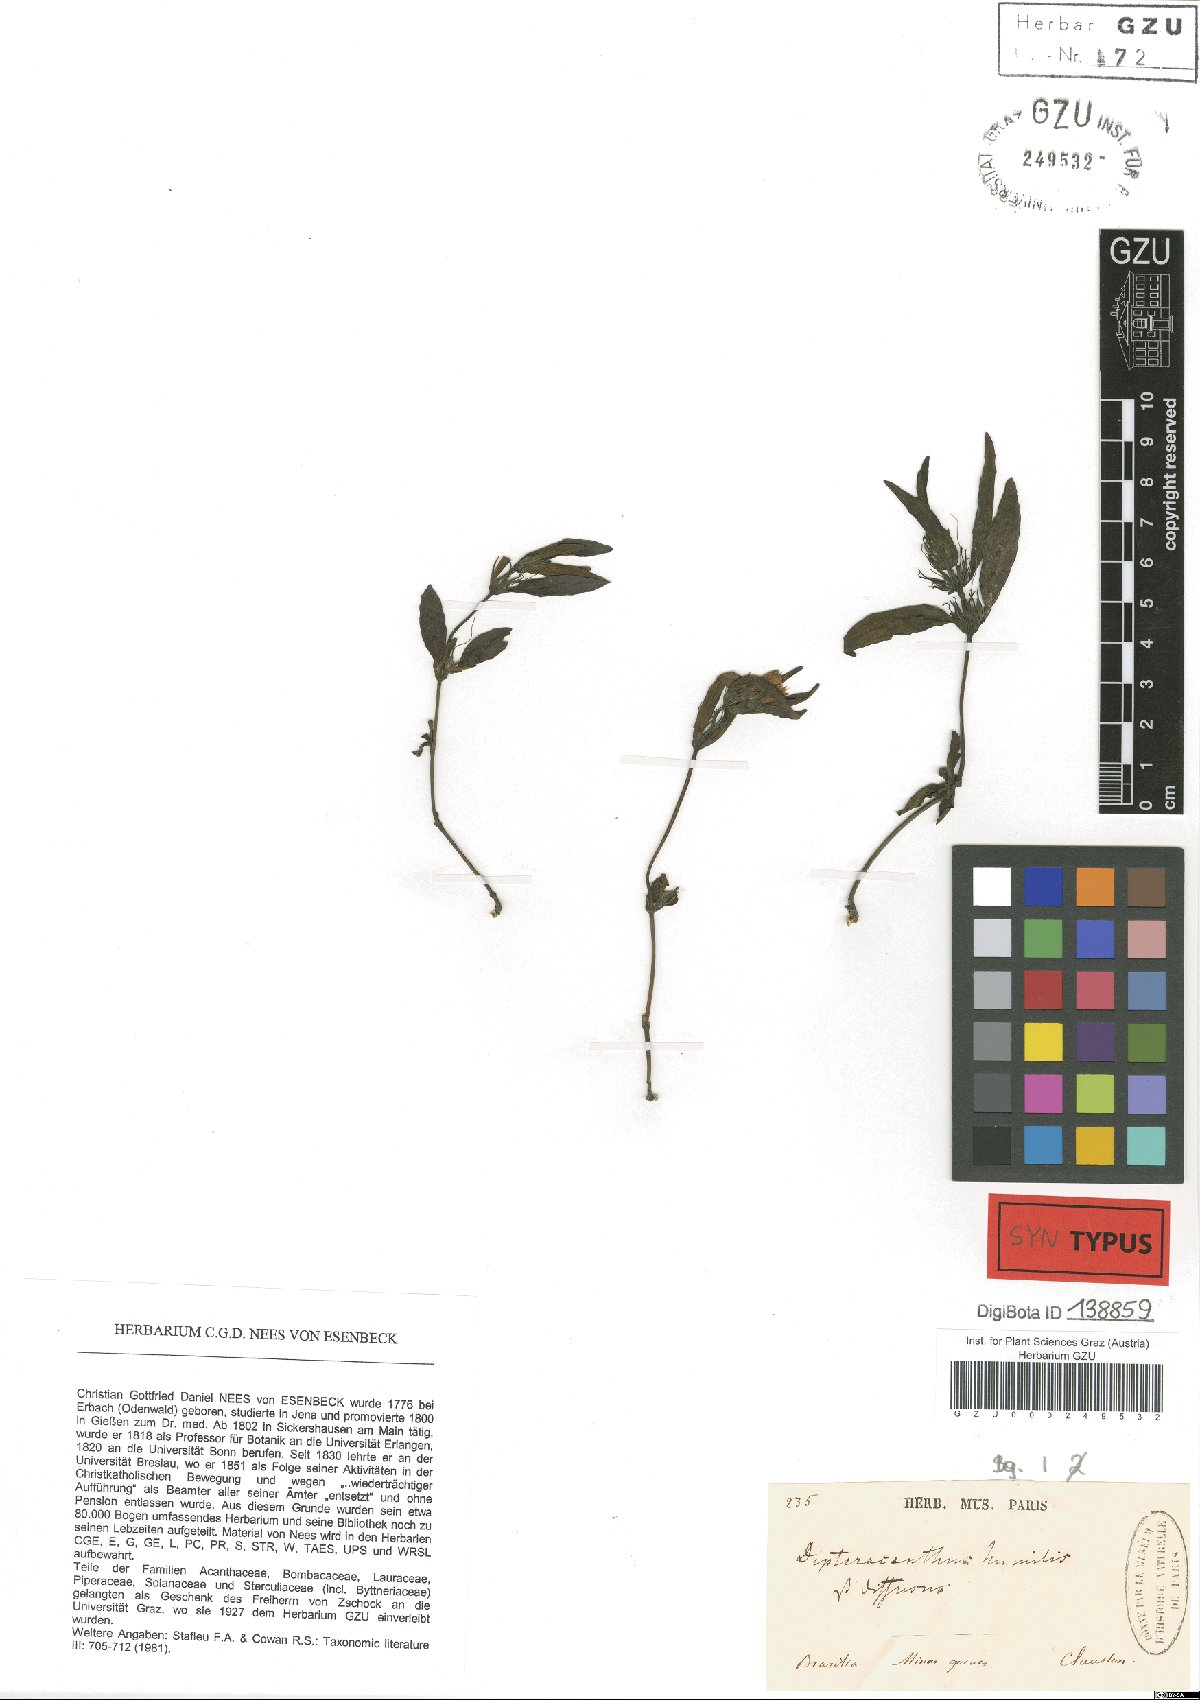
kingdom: Plantae
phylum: Tracheophyta
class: Magnoliopsida
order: Lamiales
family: Acanthaceae
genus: Ruellia
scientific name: Ruellia geminiflora
